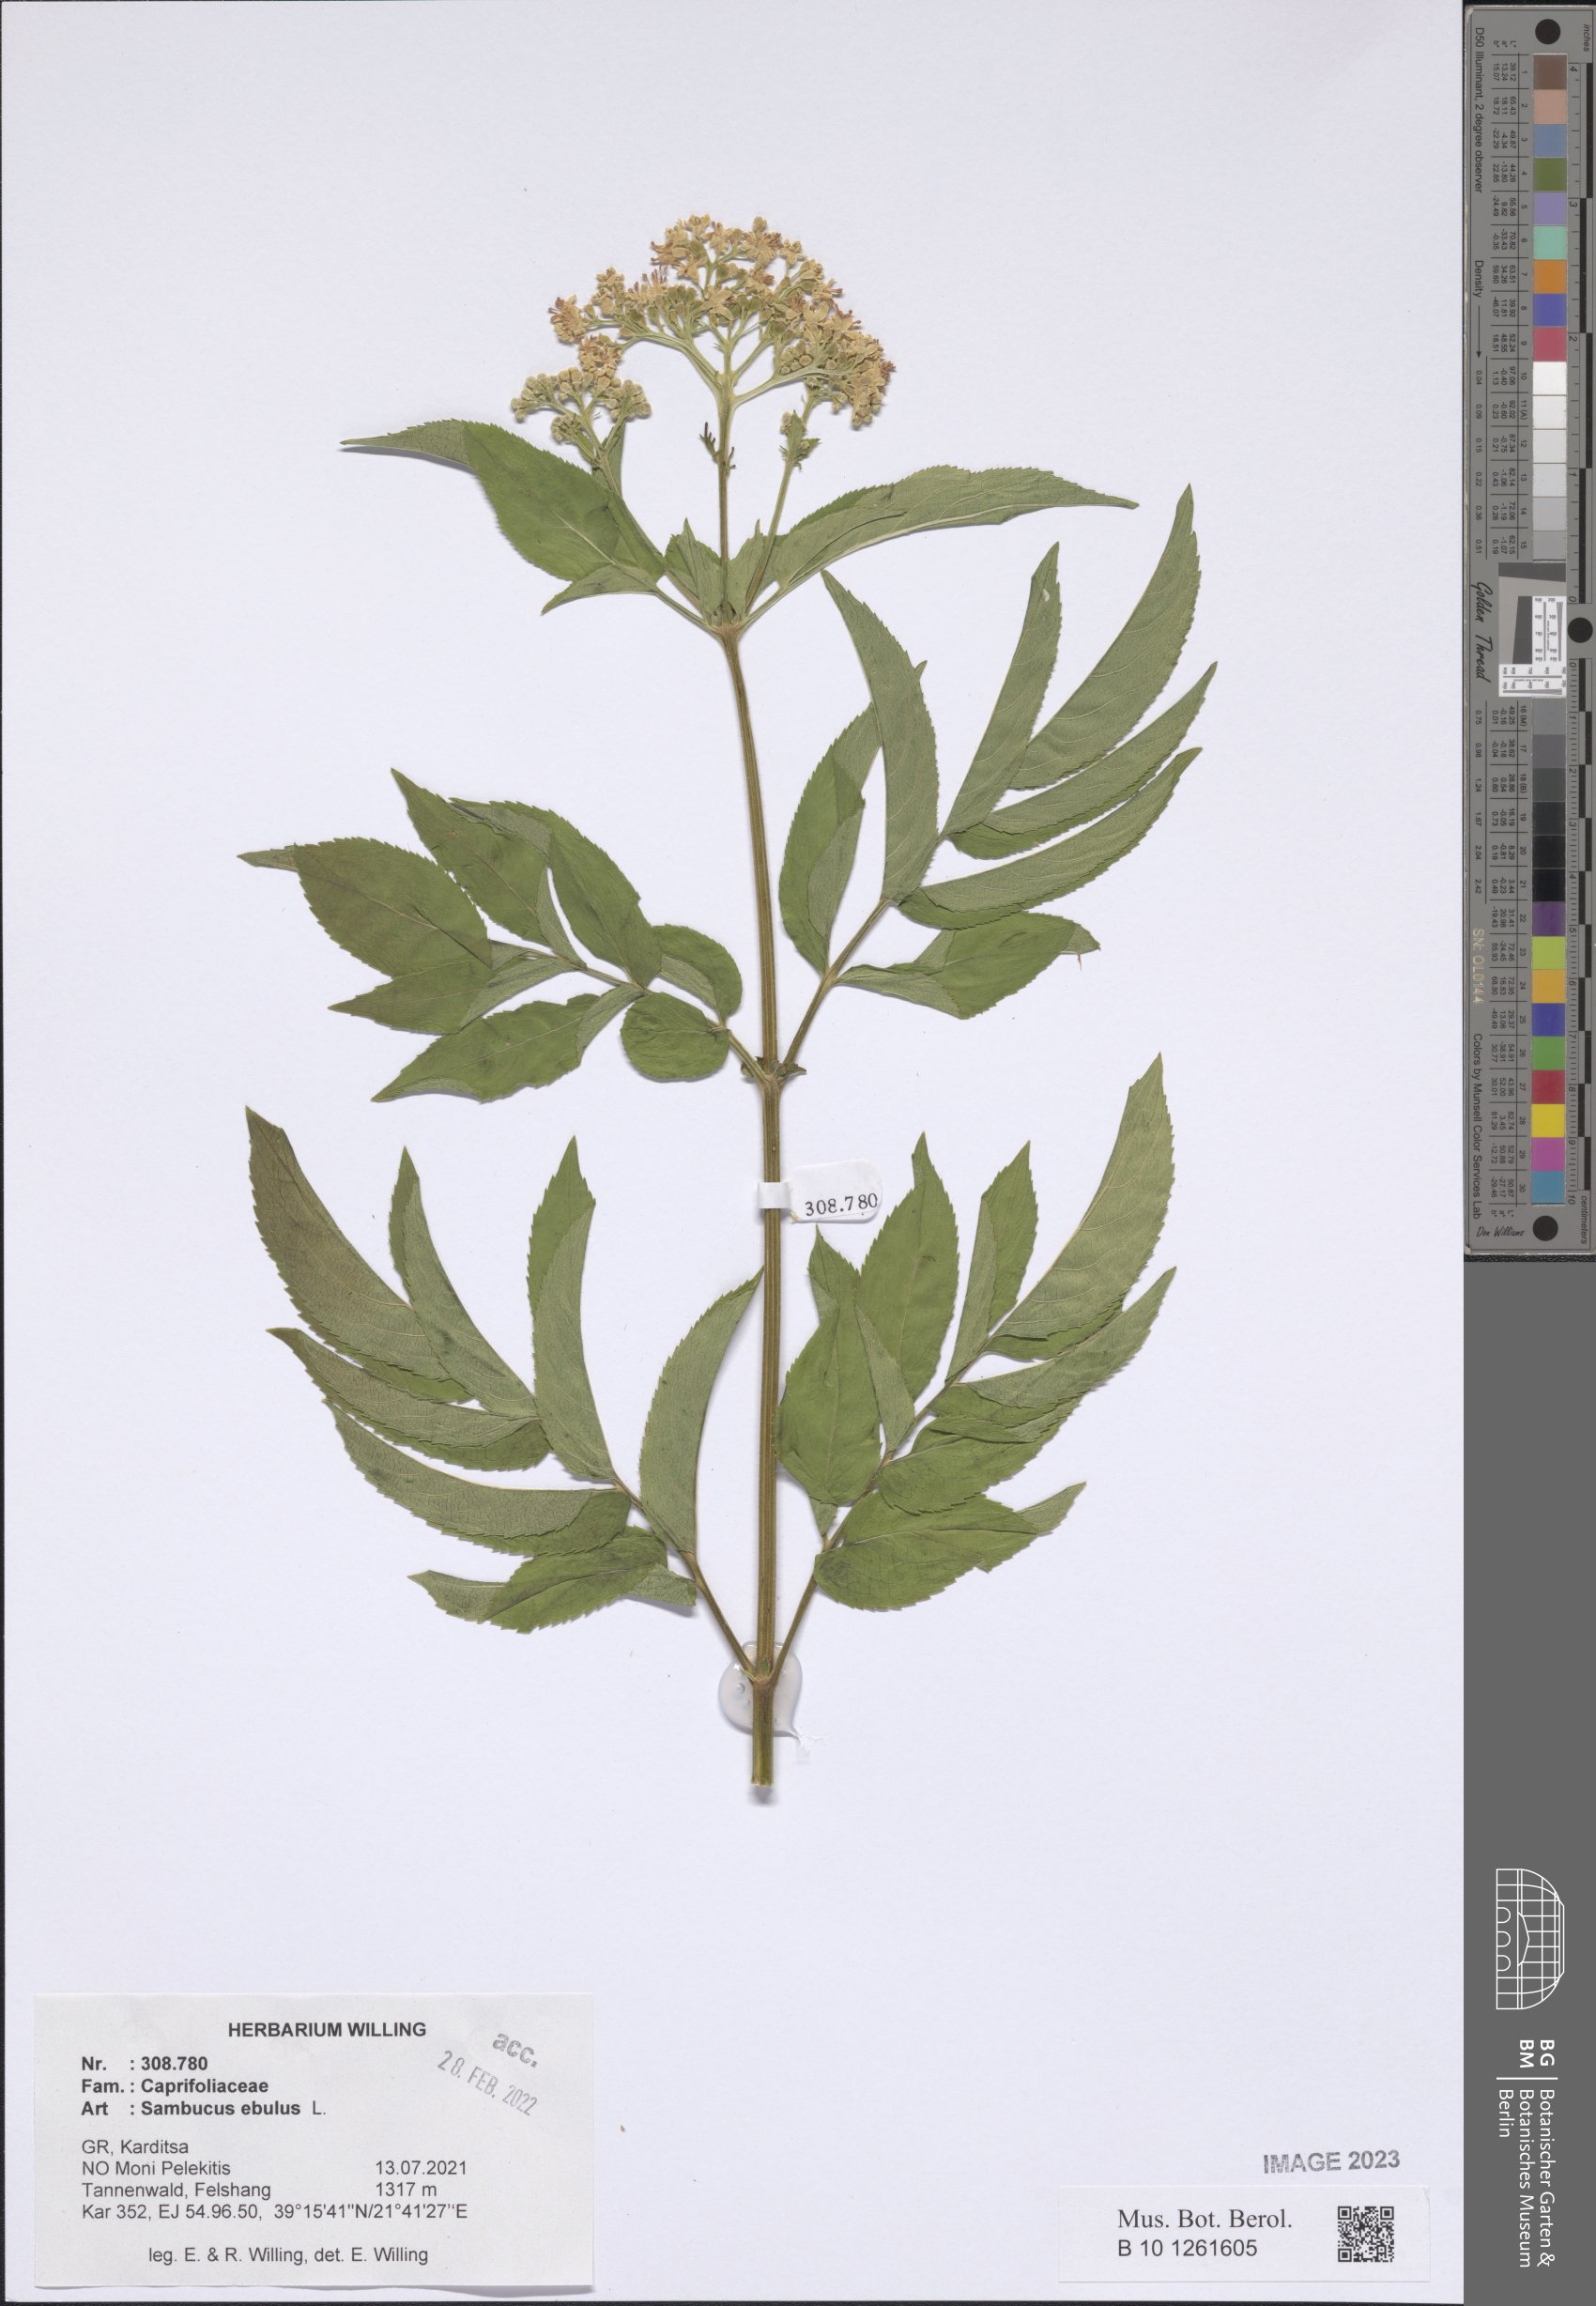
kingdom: Plantae
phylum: Tracheophyta
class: Magnoliopsida
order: Dipsacales
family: Viburnaceae
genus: Sambucus
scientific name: Sambucus ebulus
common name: Dwarf elder
